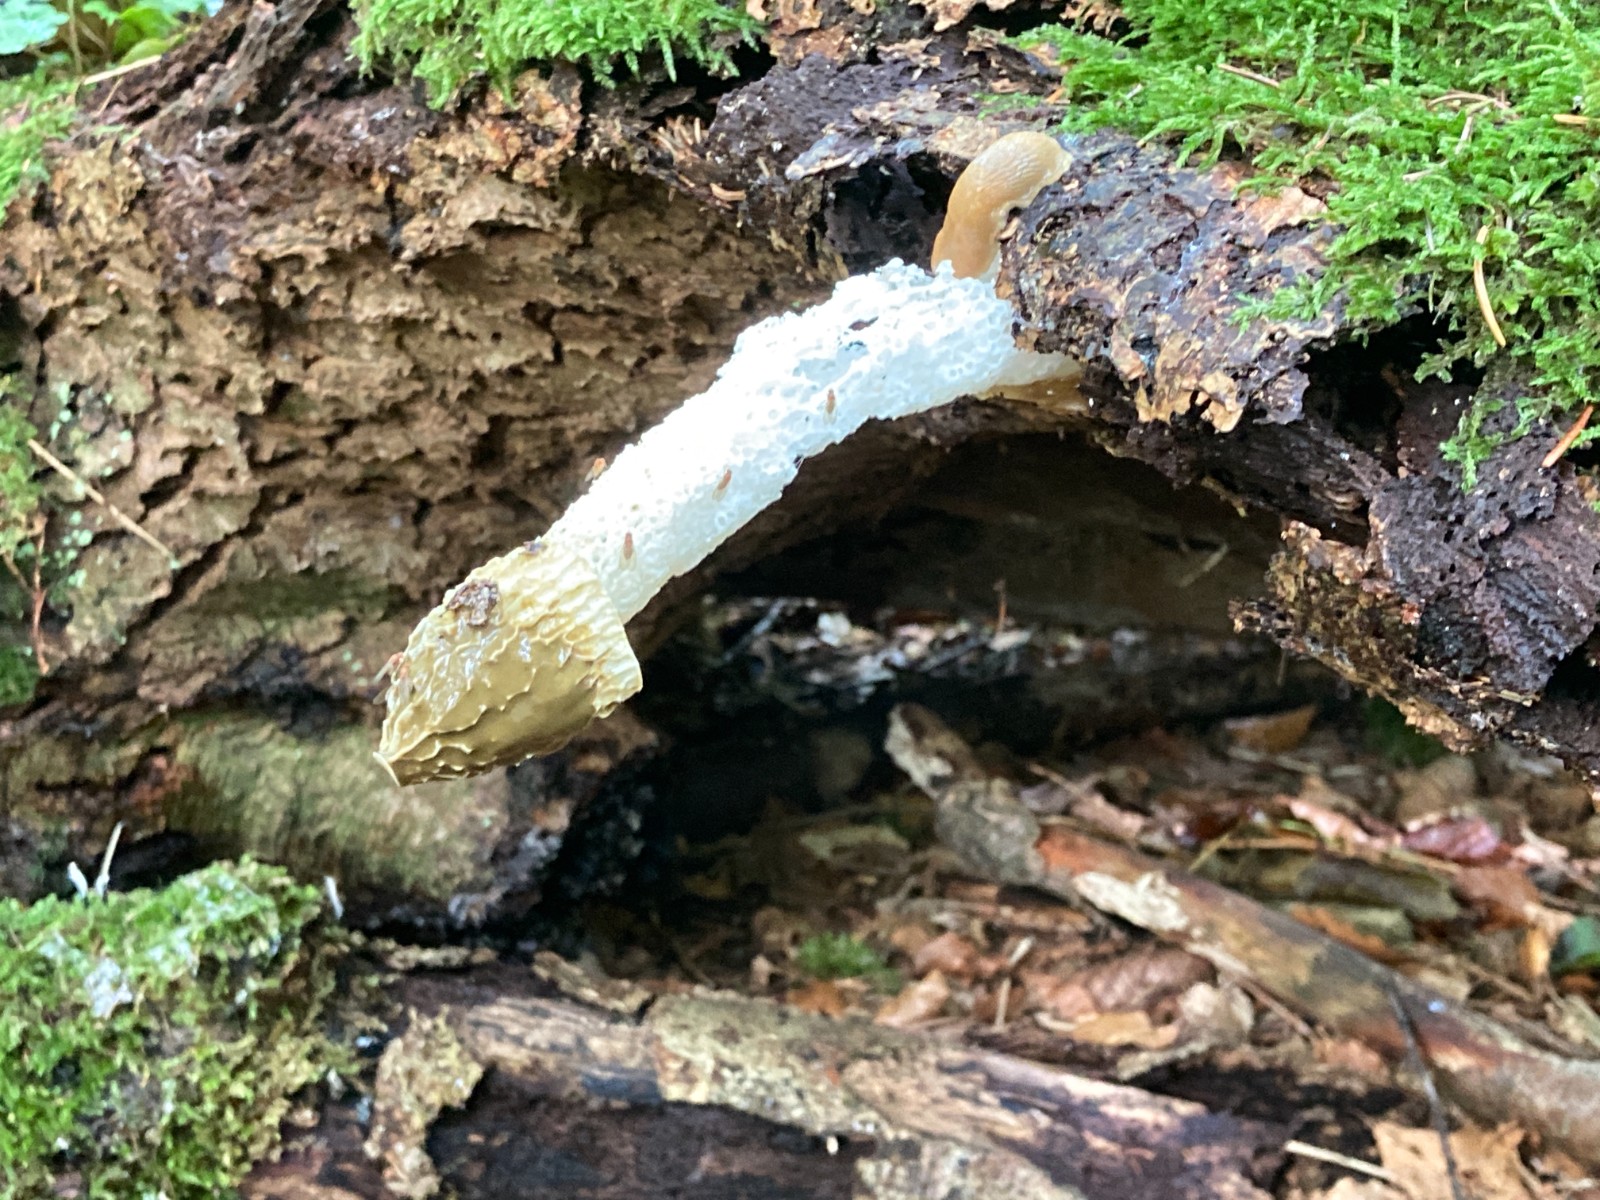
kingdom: Fungi
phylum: Basidiomycota
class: Agaricomycetes
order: Phallales
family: Phallaceae
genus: Phallus
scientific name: Phallus impudicus
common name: almindelig stinksvamp
